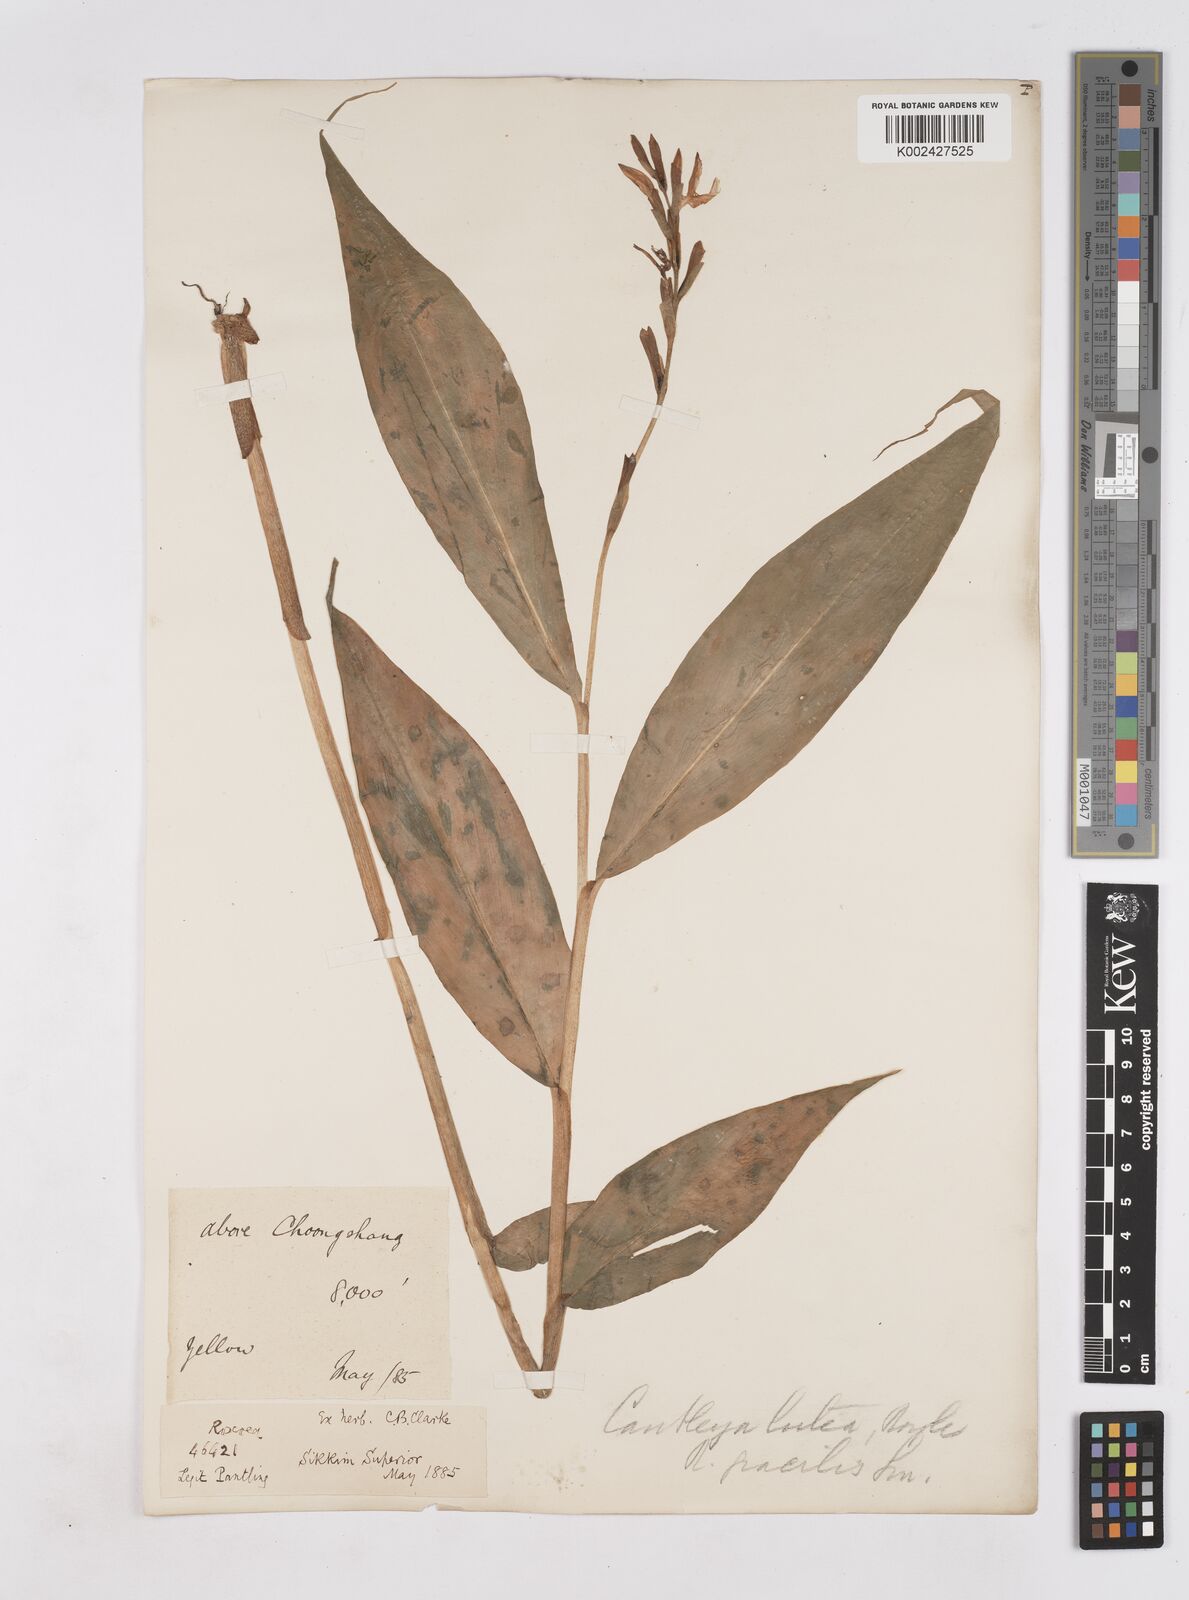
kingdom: Plantae
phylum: Tracheophyta
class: Liliopsida
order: Zingiberales
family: Zingiberaceae
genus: Cautleya
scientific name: Cautleya gracilis
